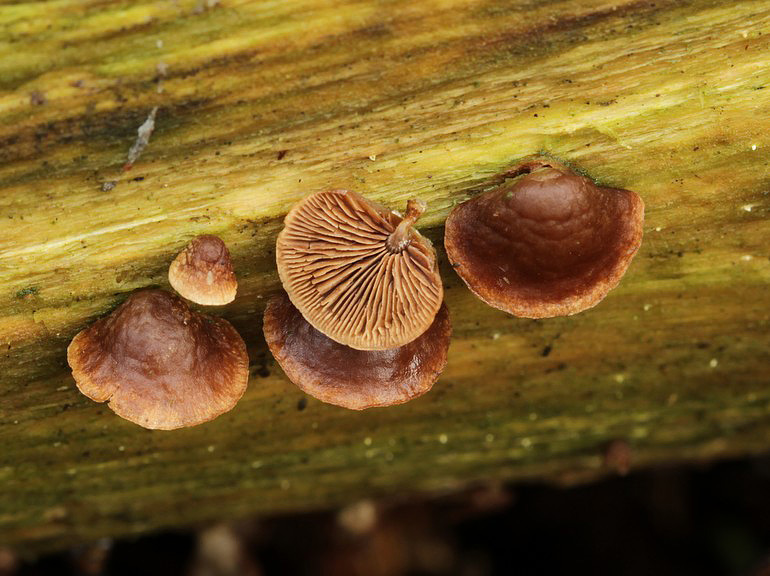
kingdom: Fungi
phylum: Basidiomycota
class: Agaricomycetes
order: Agaricales
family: Strophariaceae
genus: Deconica
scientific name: Deconica horizontalis
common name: ved-stråhat
